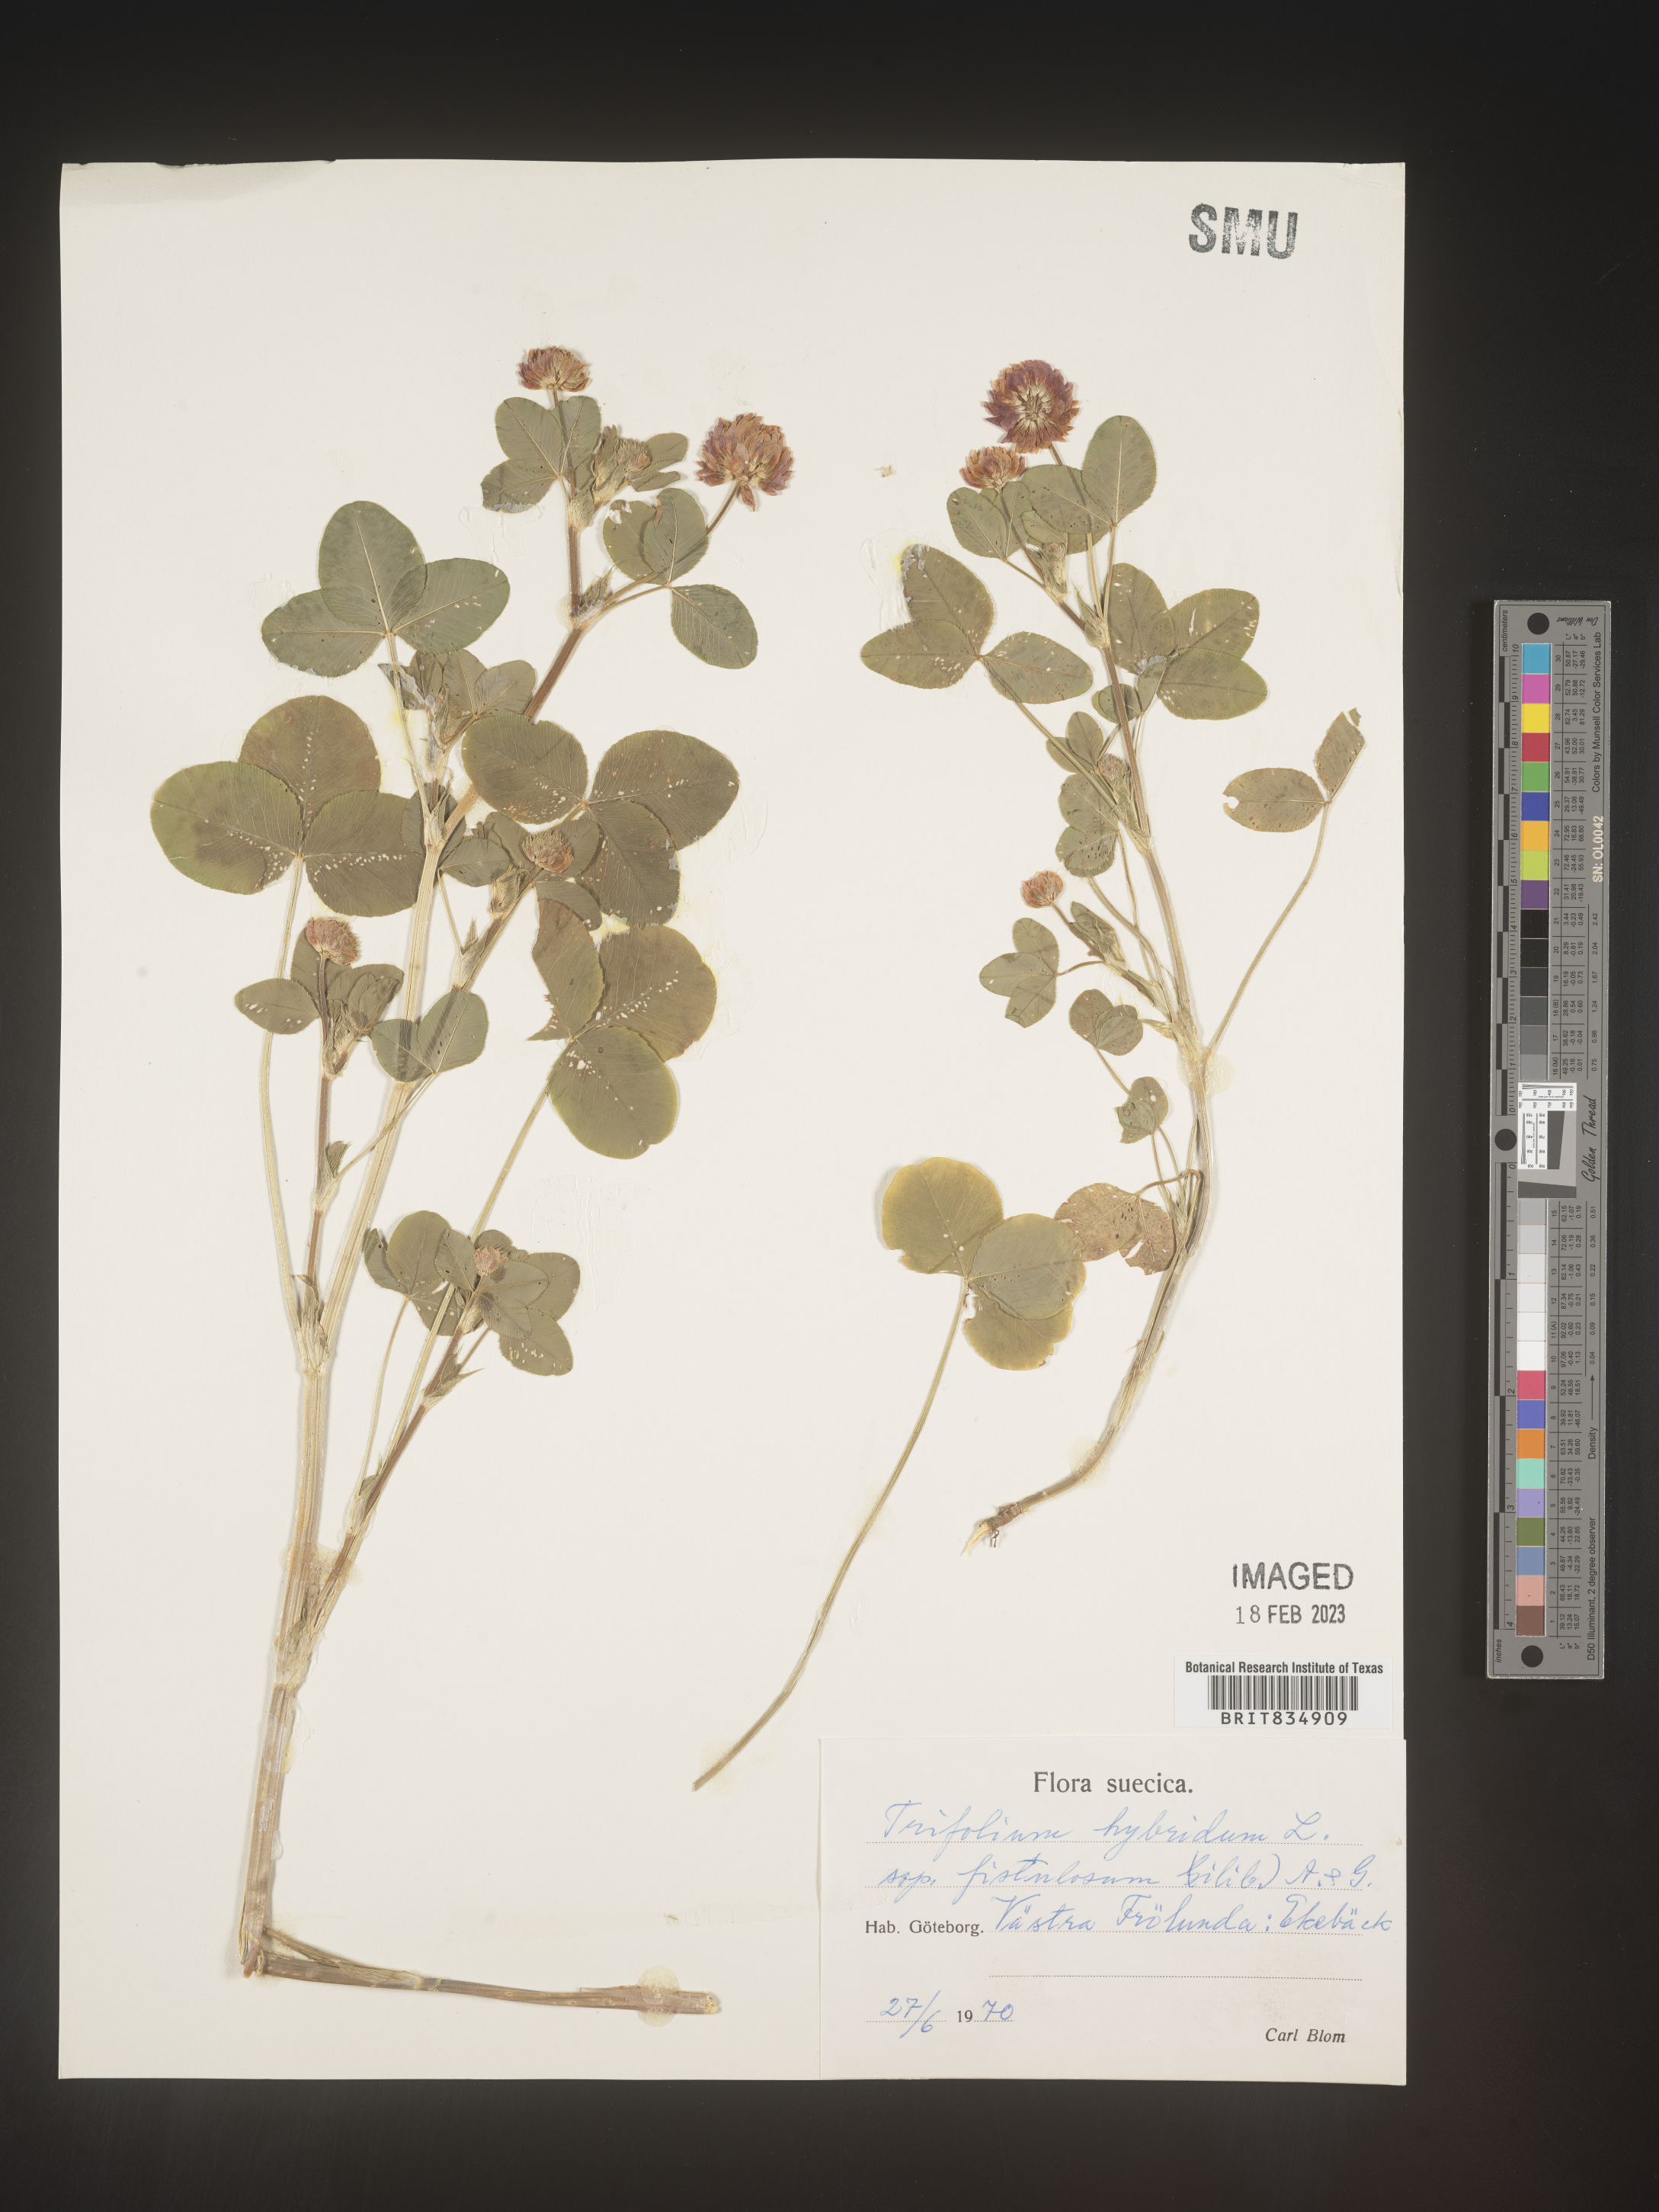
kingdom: Plantae
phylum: Tracheophyta
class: Magnoliopsida
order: Fabales
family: Fabaceae
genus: Trifolium
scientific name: Trifolium
